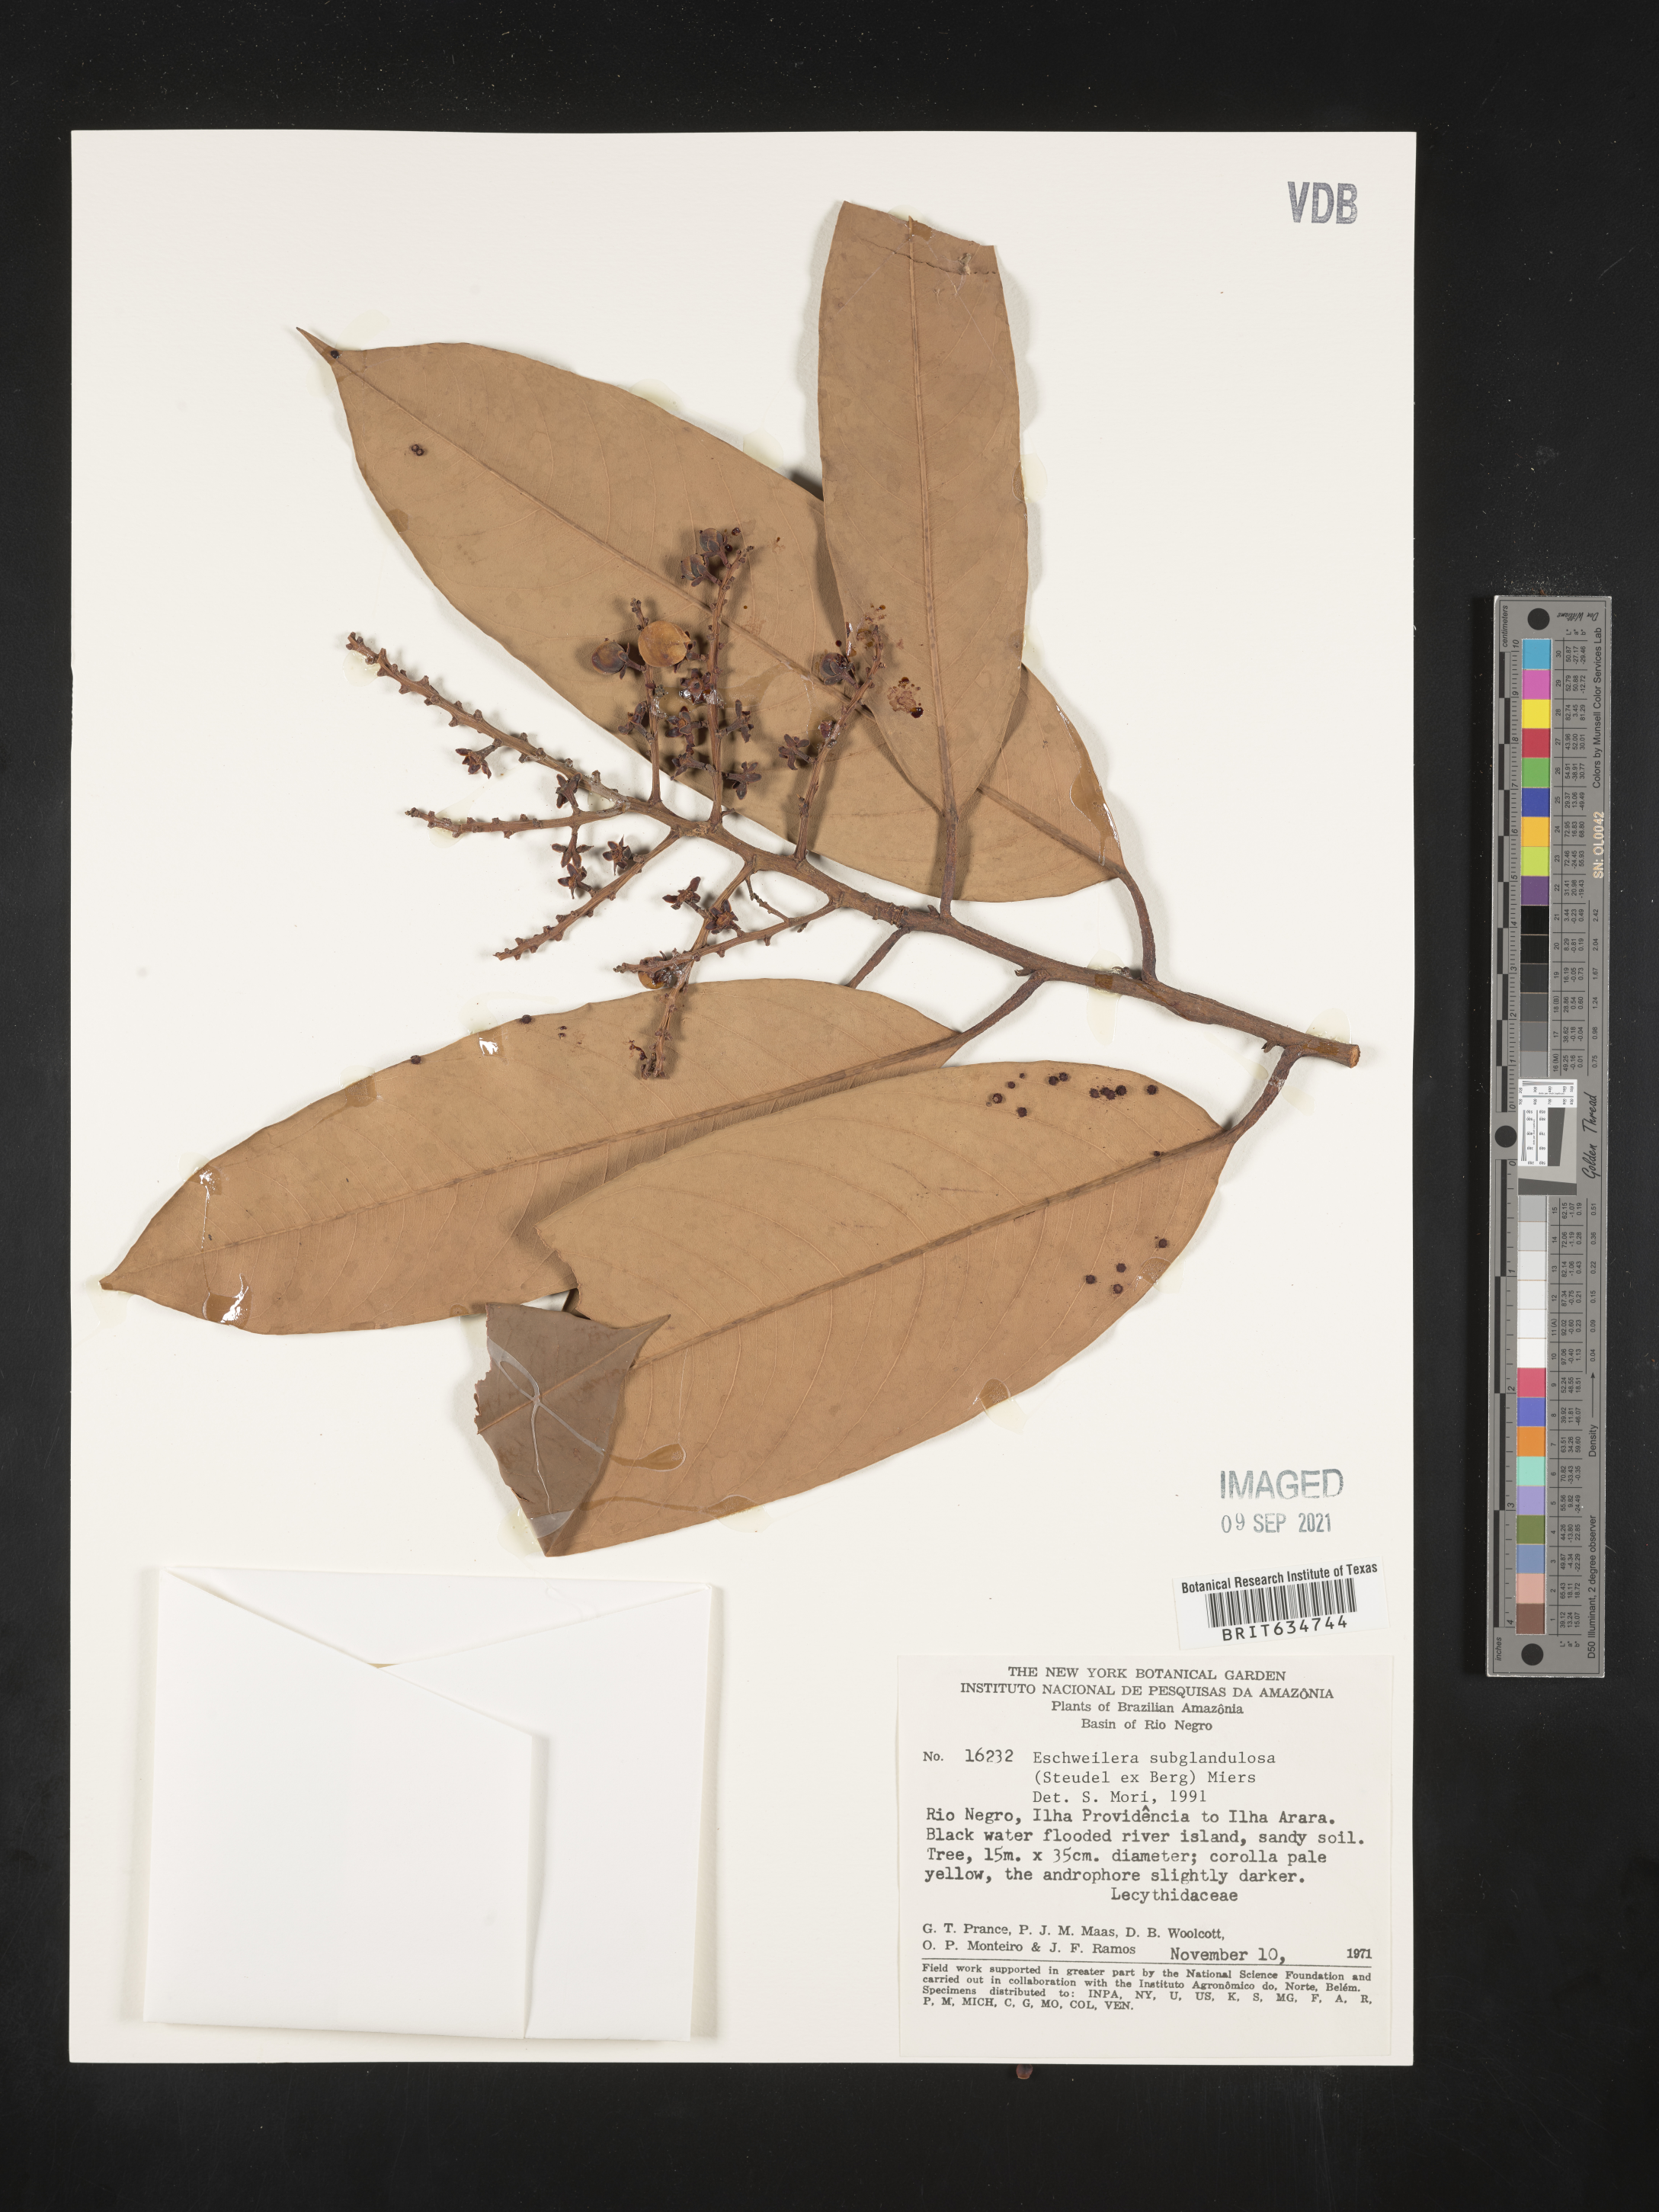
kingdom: Plantae
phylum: Tracheophyta
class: Magnoliopsida
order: Ericales
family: Lecythidaceae
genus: Eschweilera
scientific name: Eschweilera
